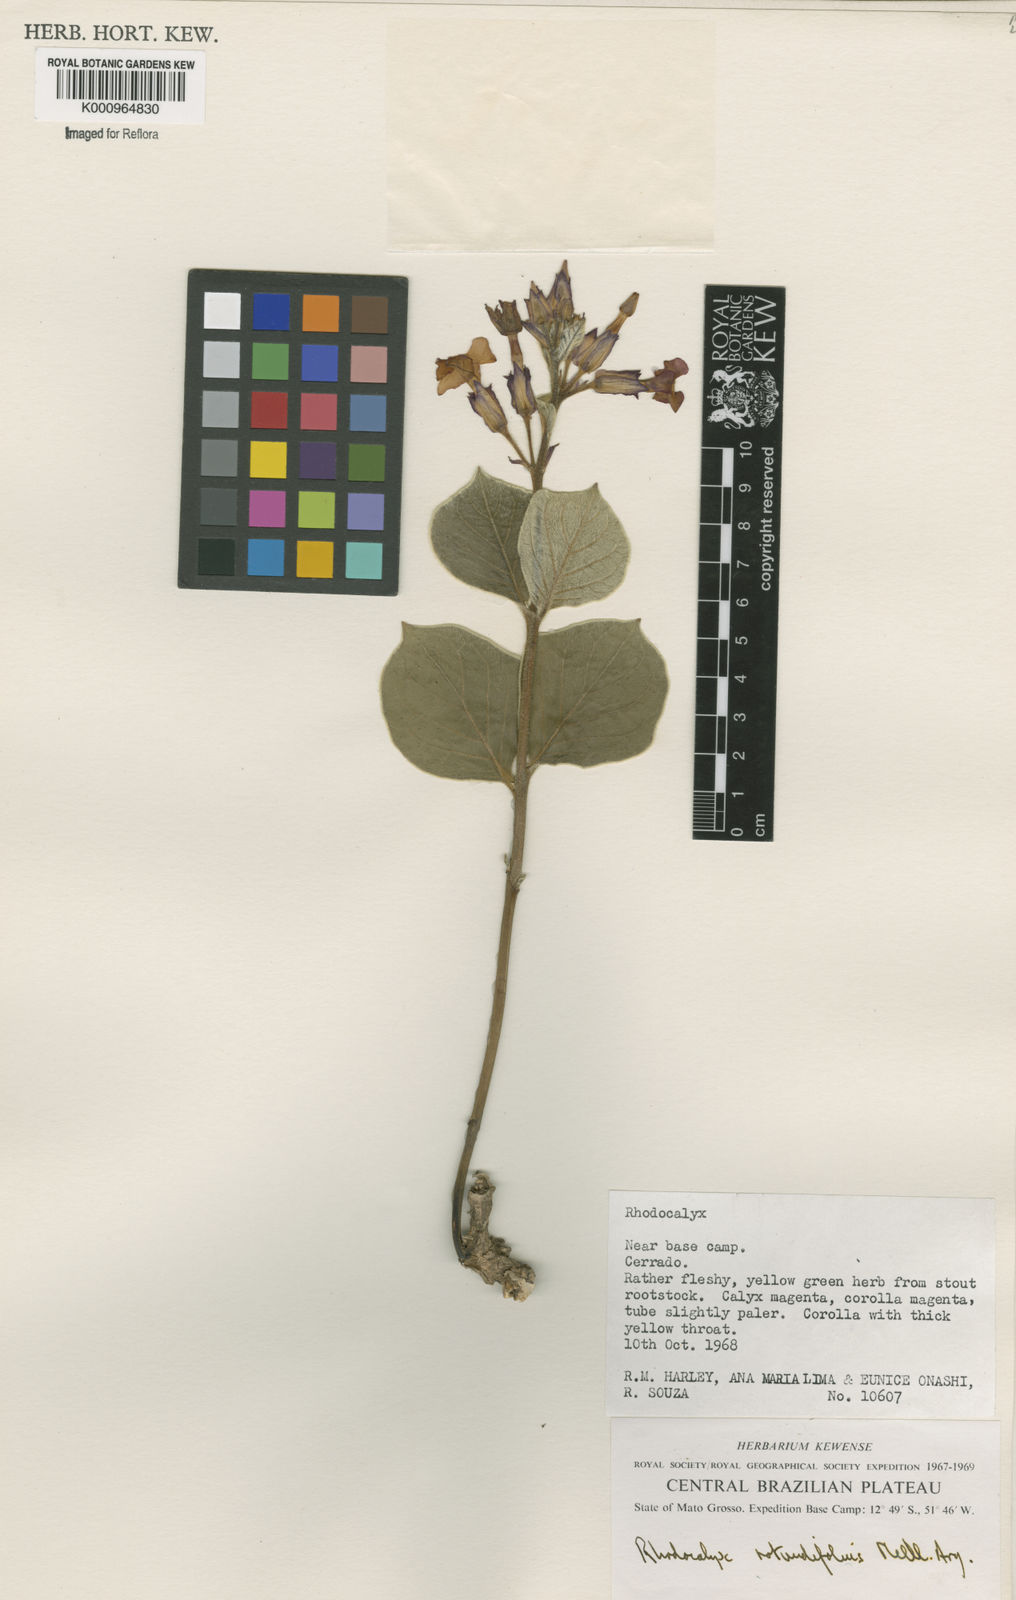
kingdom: Plantae
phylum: Tracheophyta
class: Magnoliopsida
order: Gentianales
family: Apocynaceae
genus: Rhodocalyx
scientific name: Rhodocalyx
